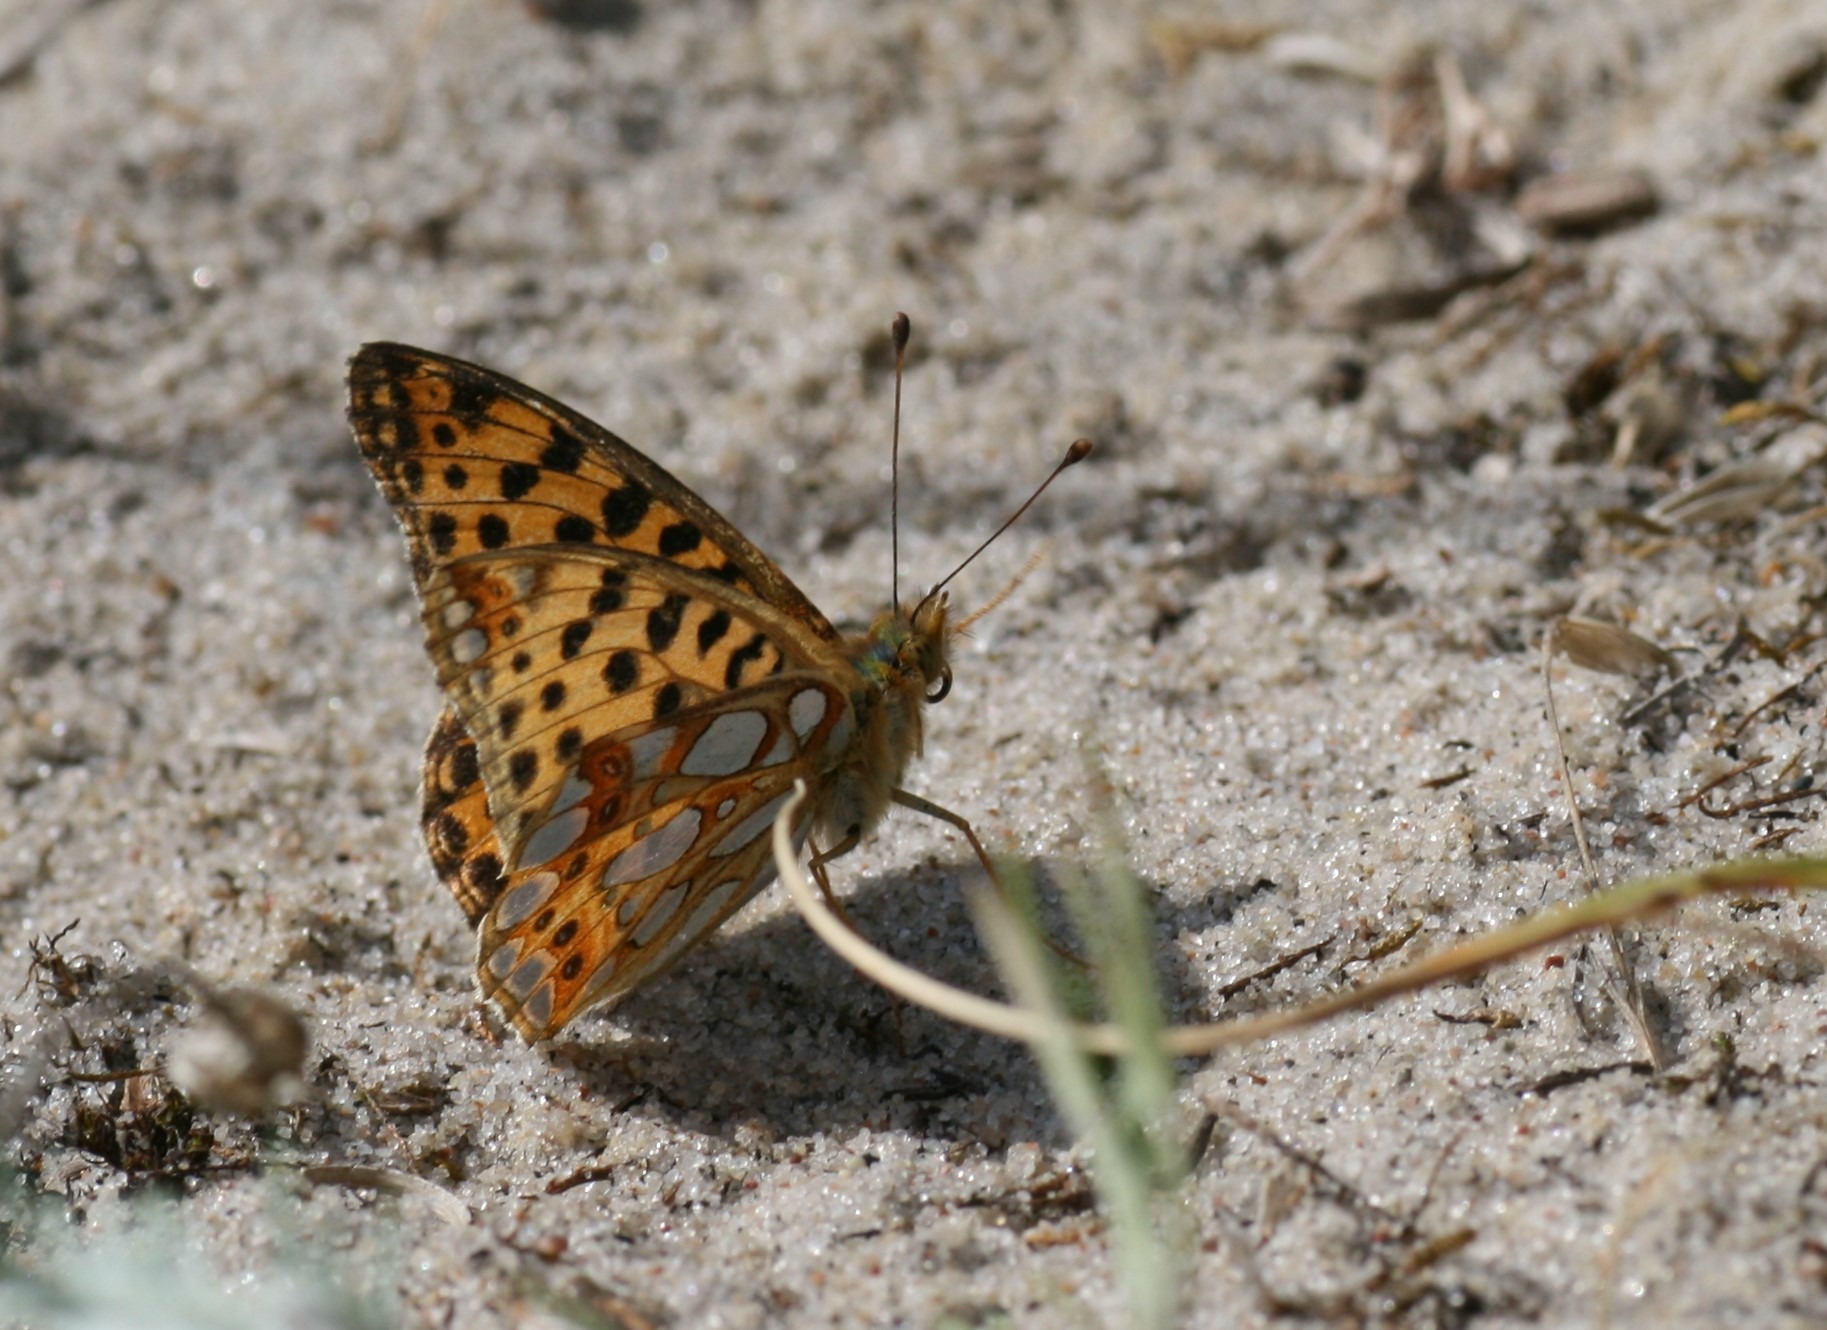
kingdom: Animalia
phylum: Arthropoda
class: Insecta
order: Lepidoptera
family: Nymphalidae
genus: Issoria
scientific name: Issoria lathonia
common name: Storplettet perlemorsommerfugl
